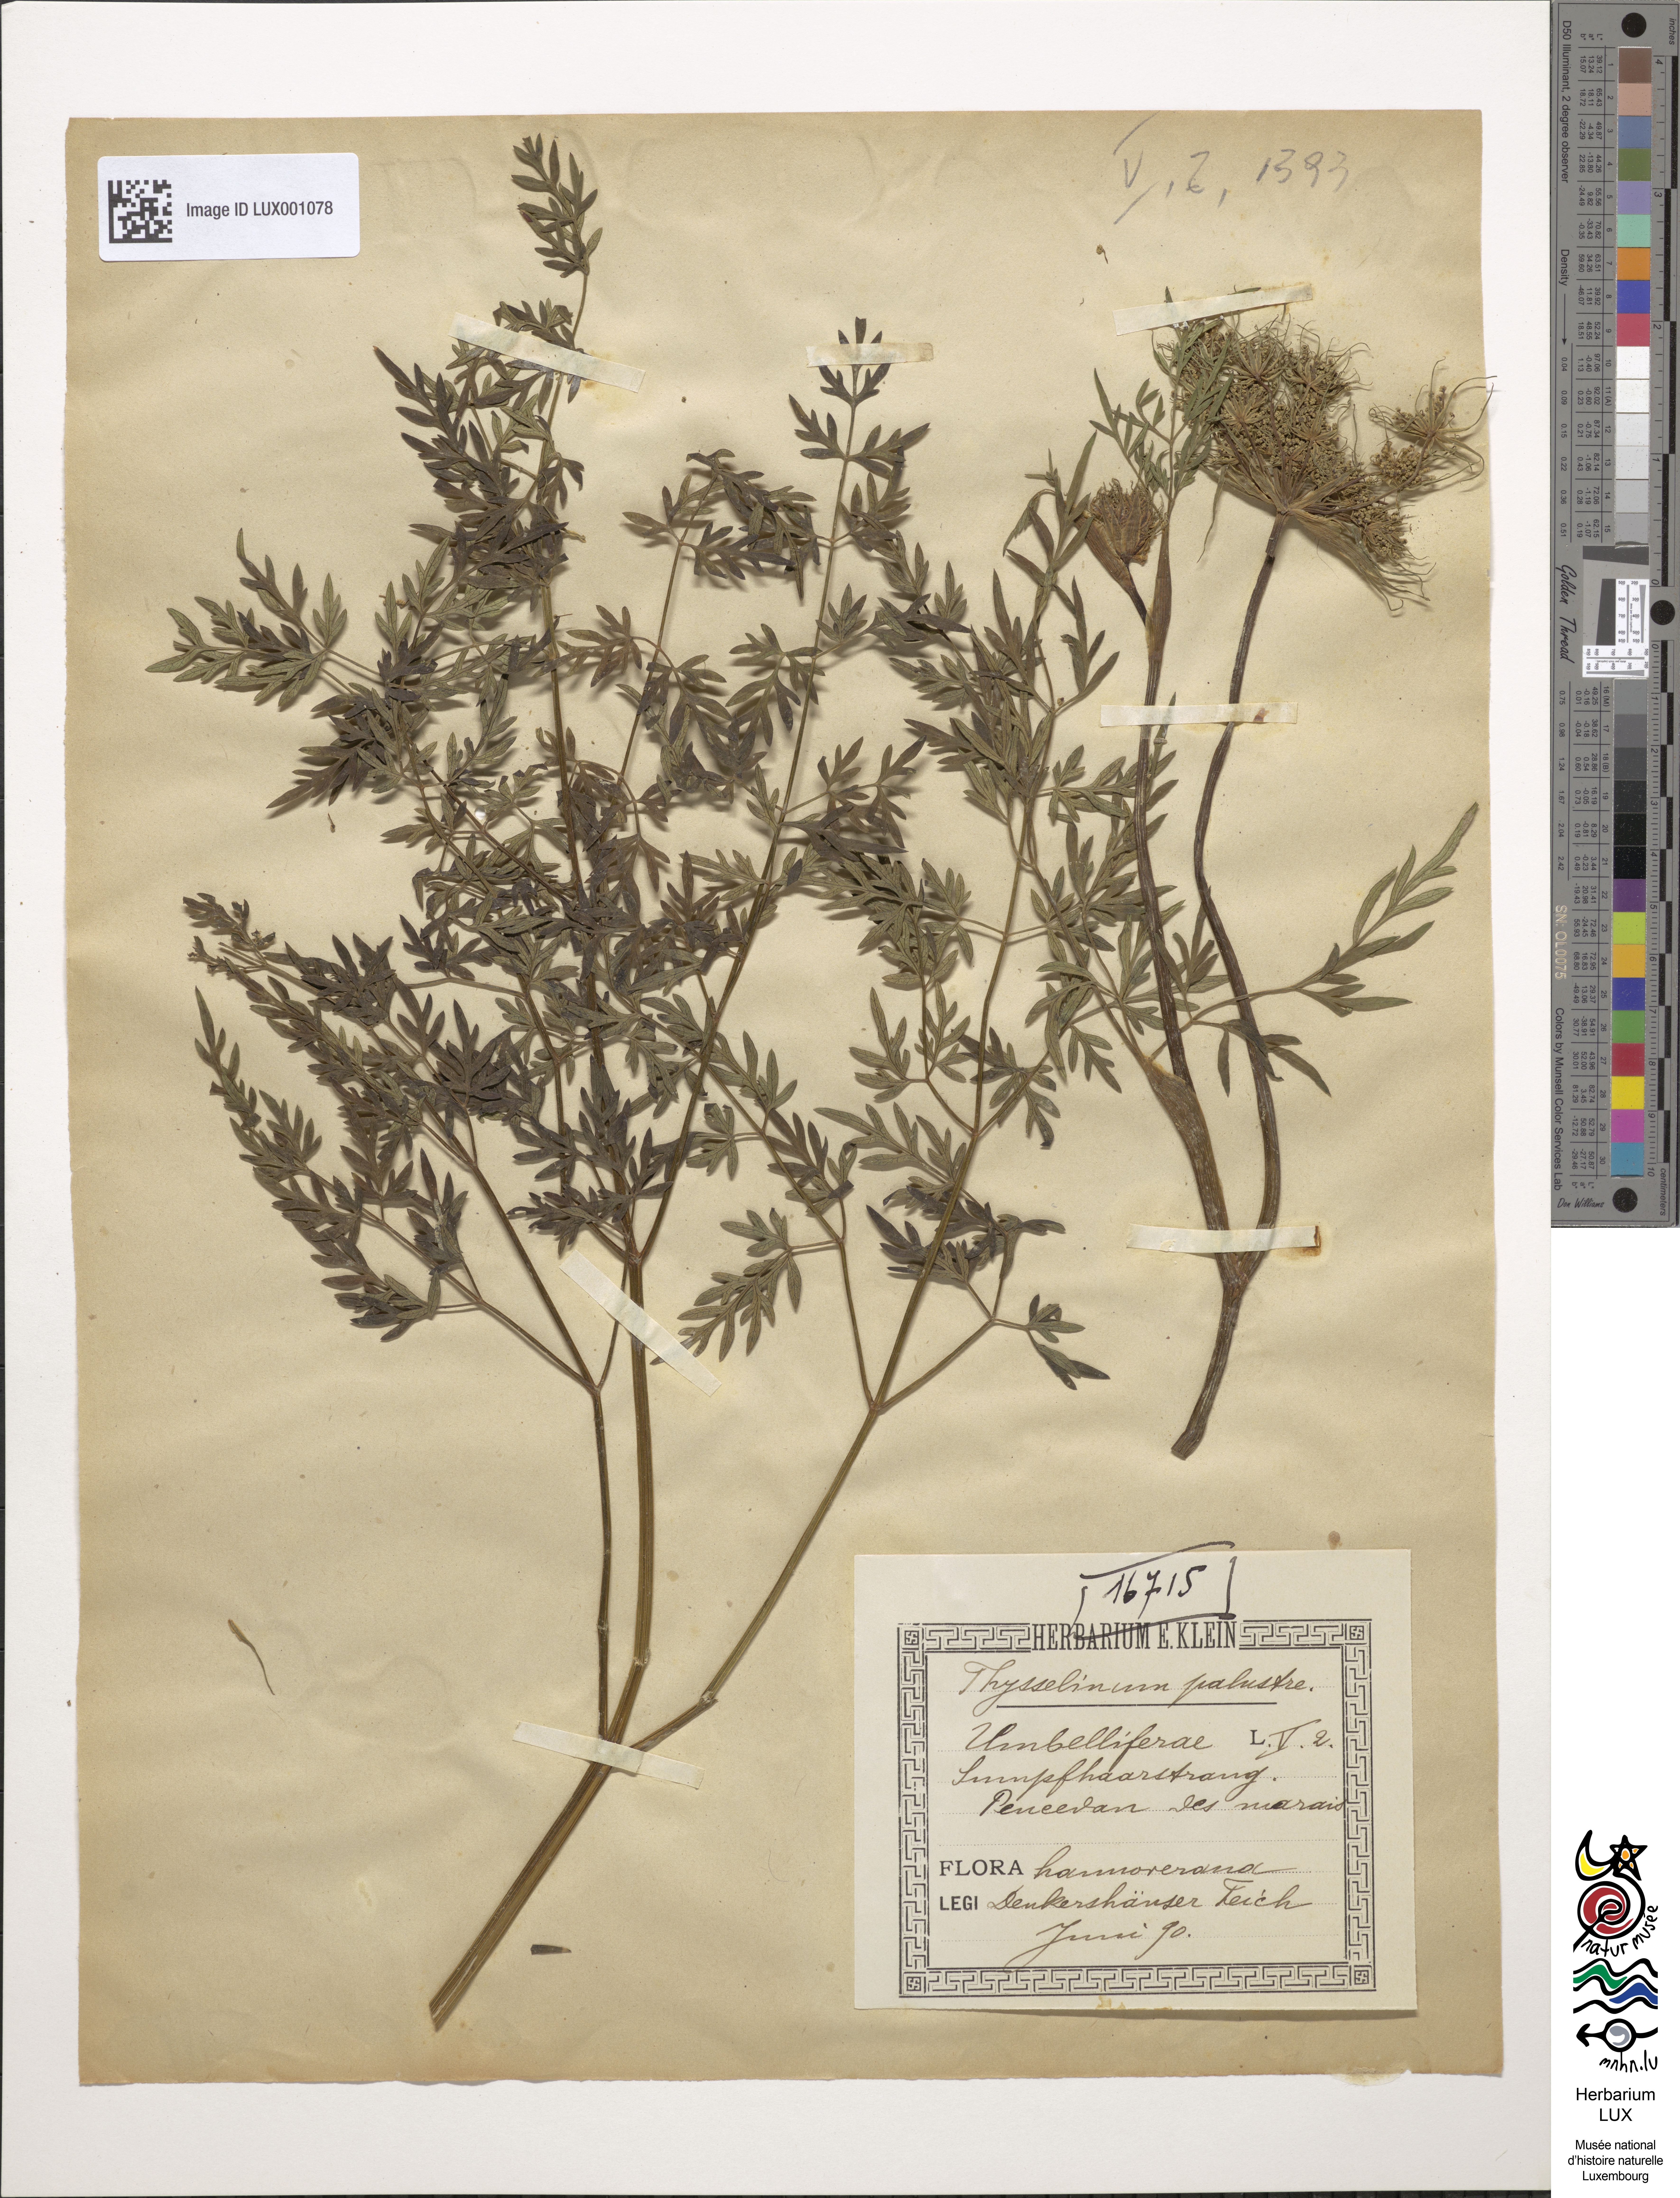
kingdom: Plantae
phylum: Tracheophyta
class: Magnoliopsida
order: Apiales
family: Apiaceae
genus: Thysselinum
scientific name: Thysselinum palustre
